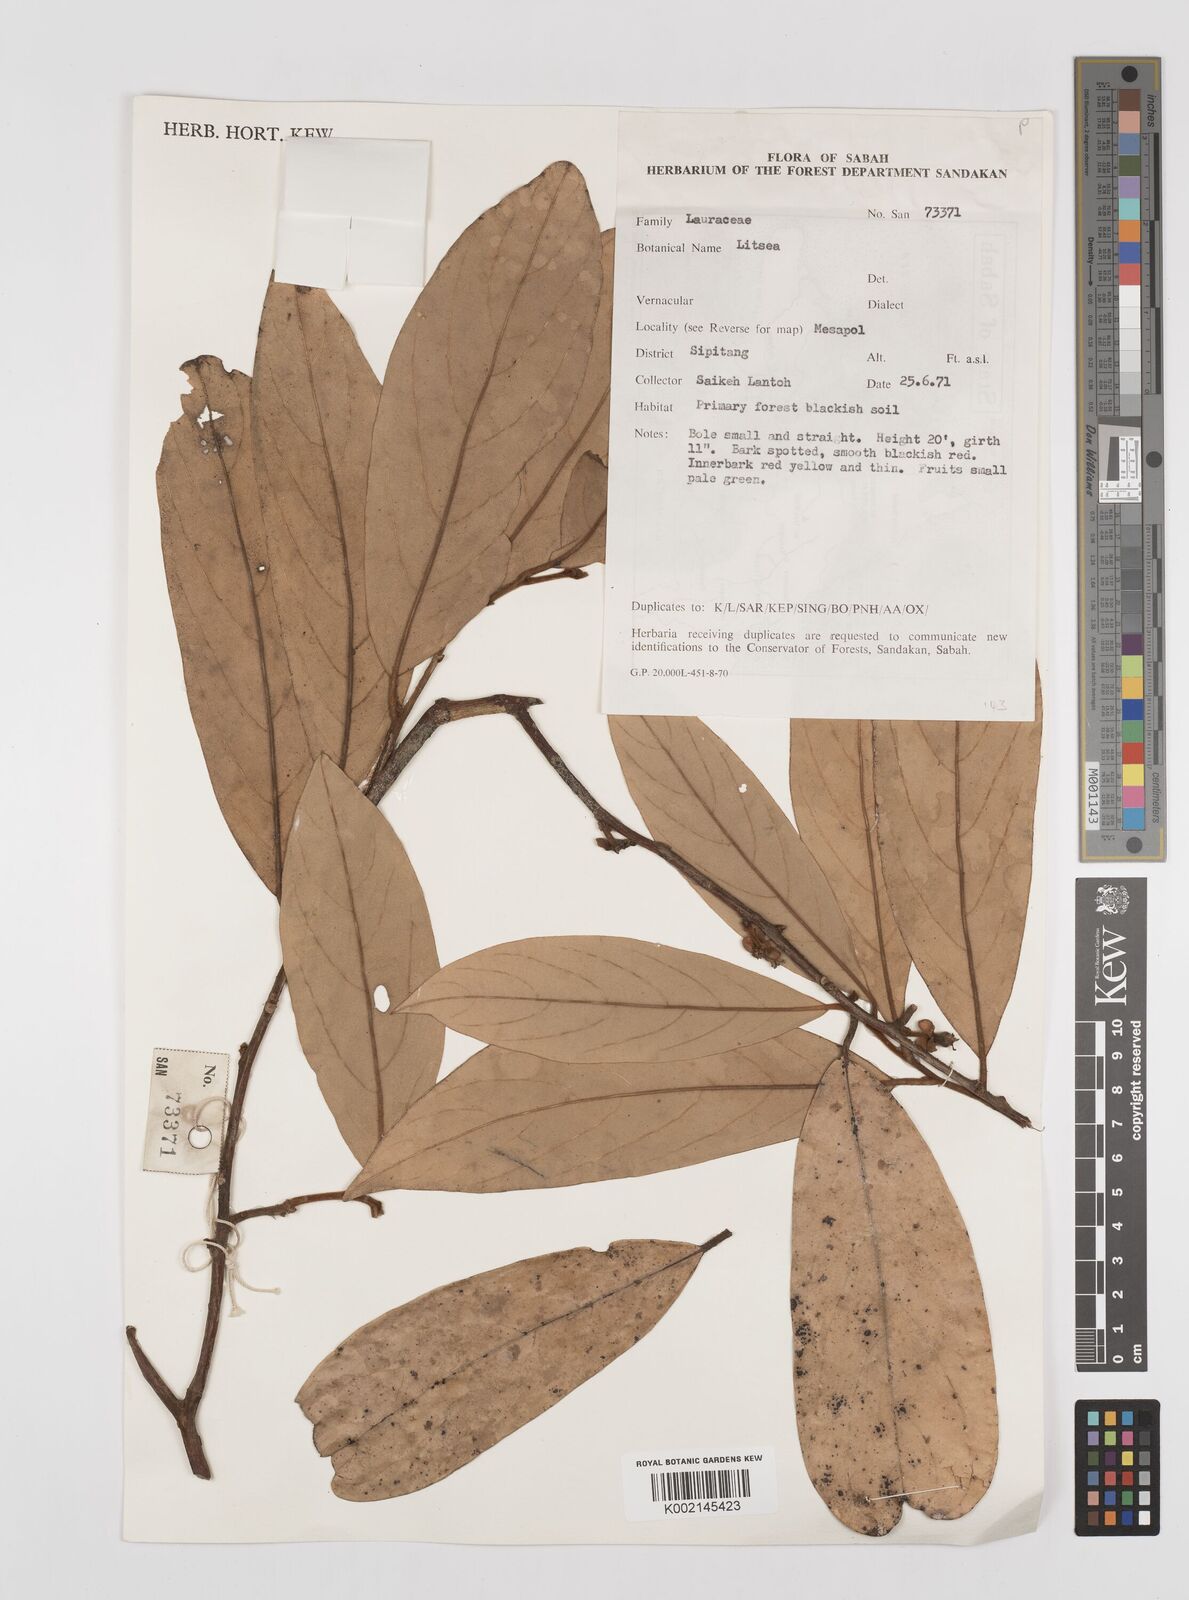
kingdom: Plantae
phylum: Tracheophyta
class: Magnoliopsida
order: Laurales
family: Lauraceae
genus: Litsea
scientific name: Litsea
